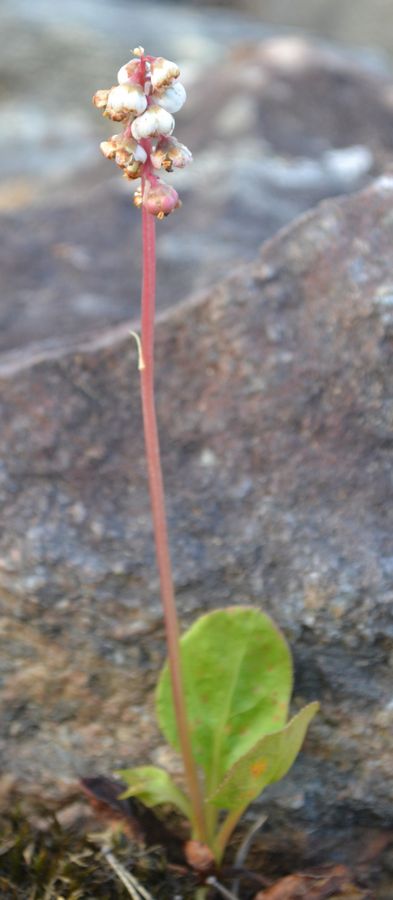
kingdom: Plantae
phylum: Tracheophyta
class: Magnoliopsida
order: Ericales
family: Ericaceae
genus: Pyrola
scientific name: Pyrola minor
